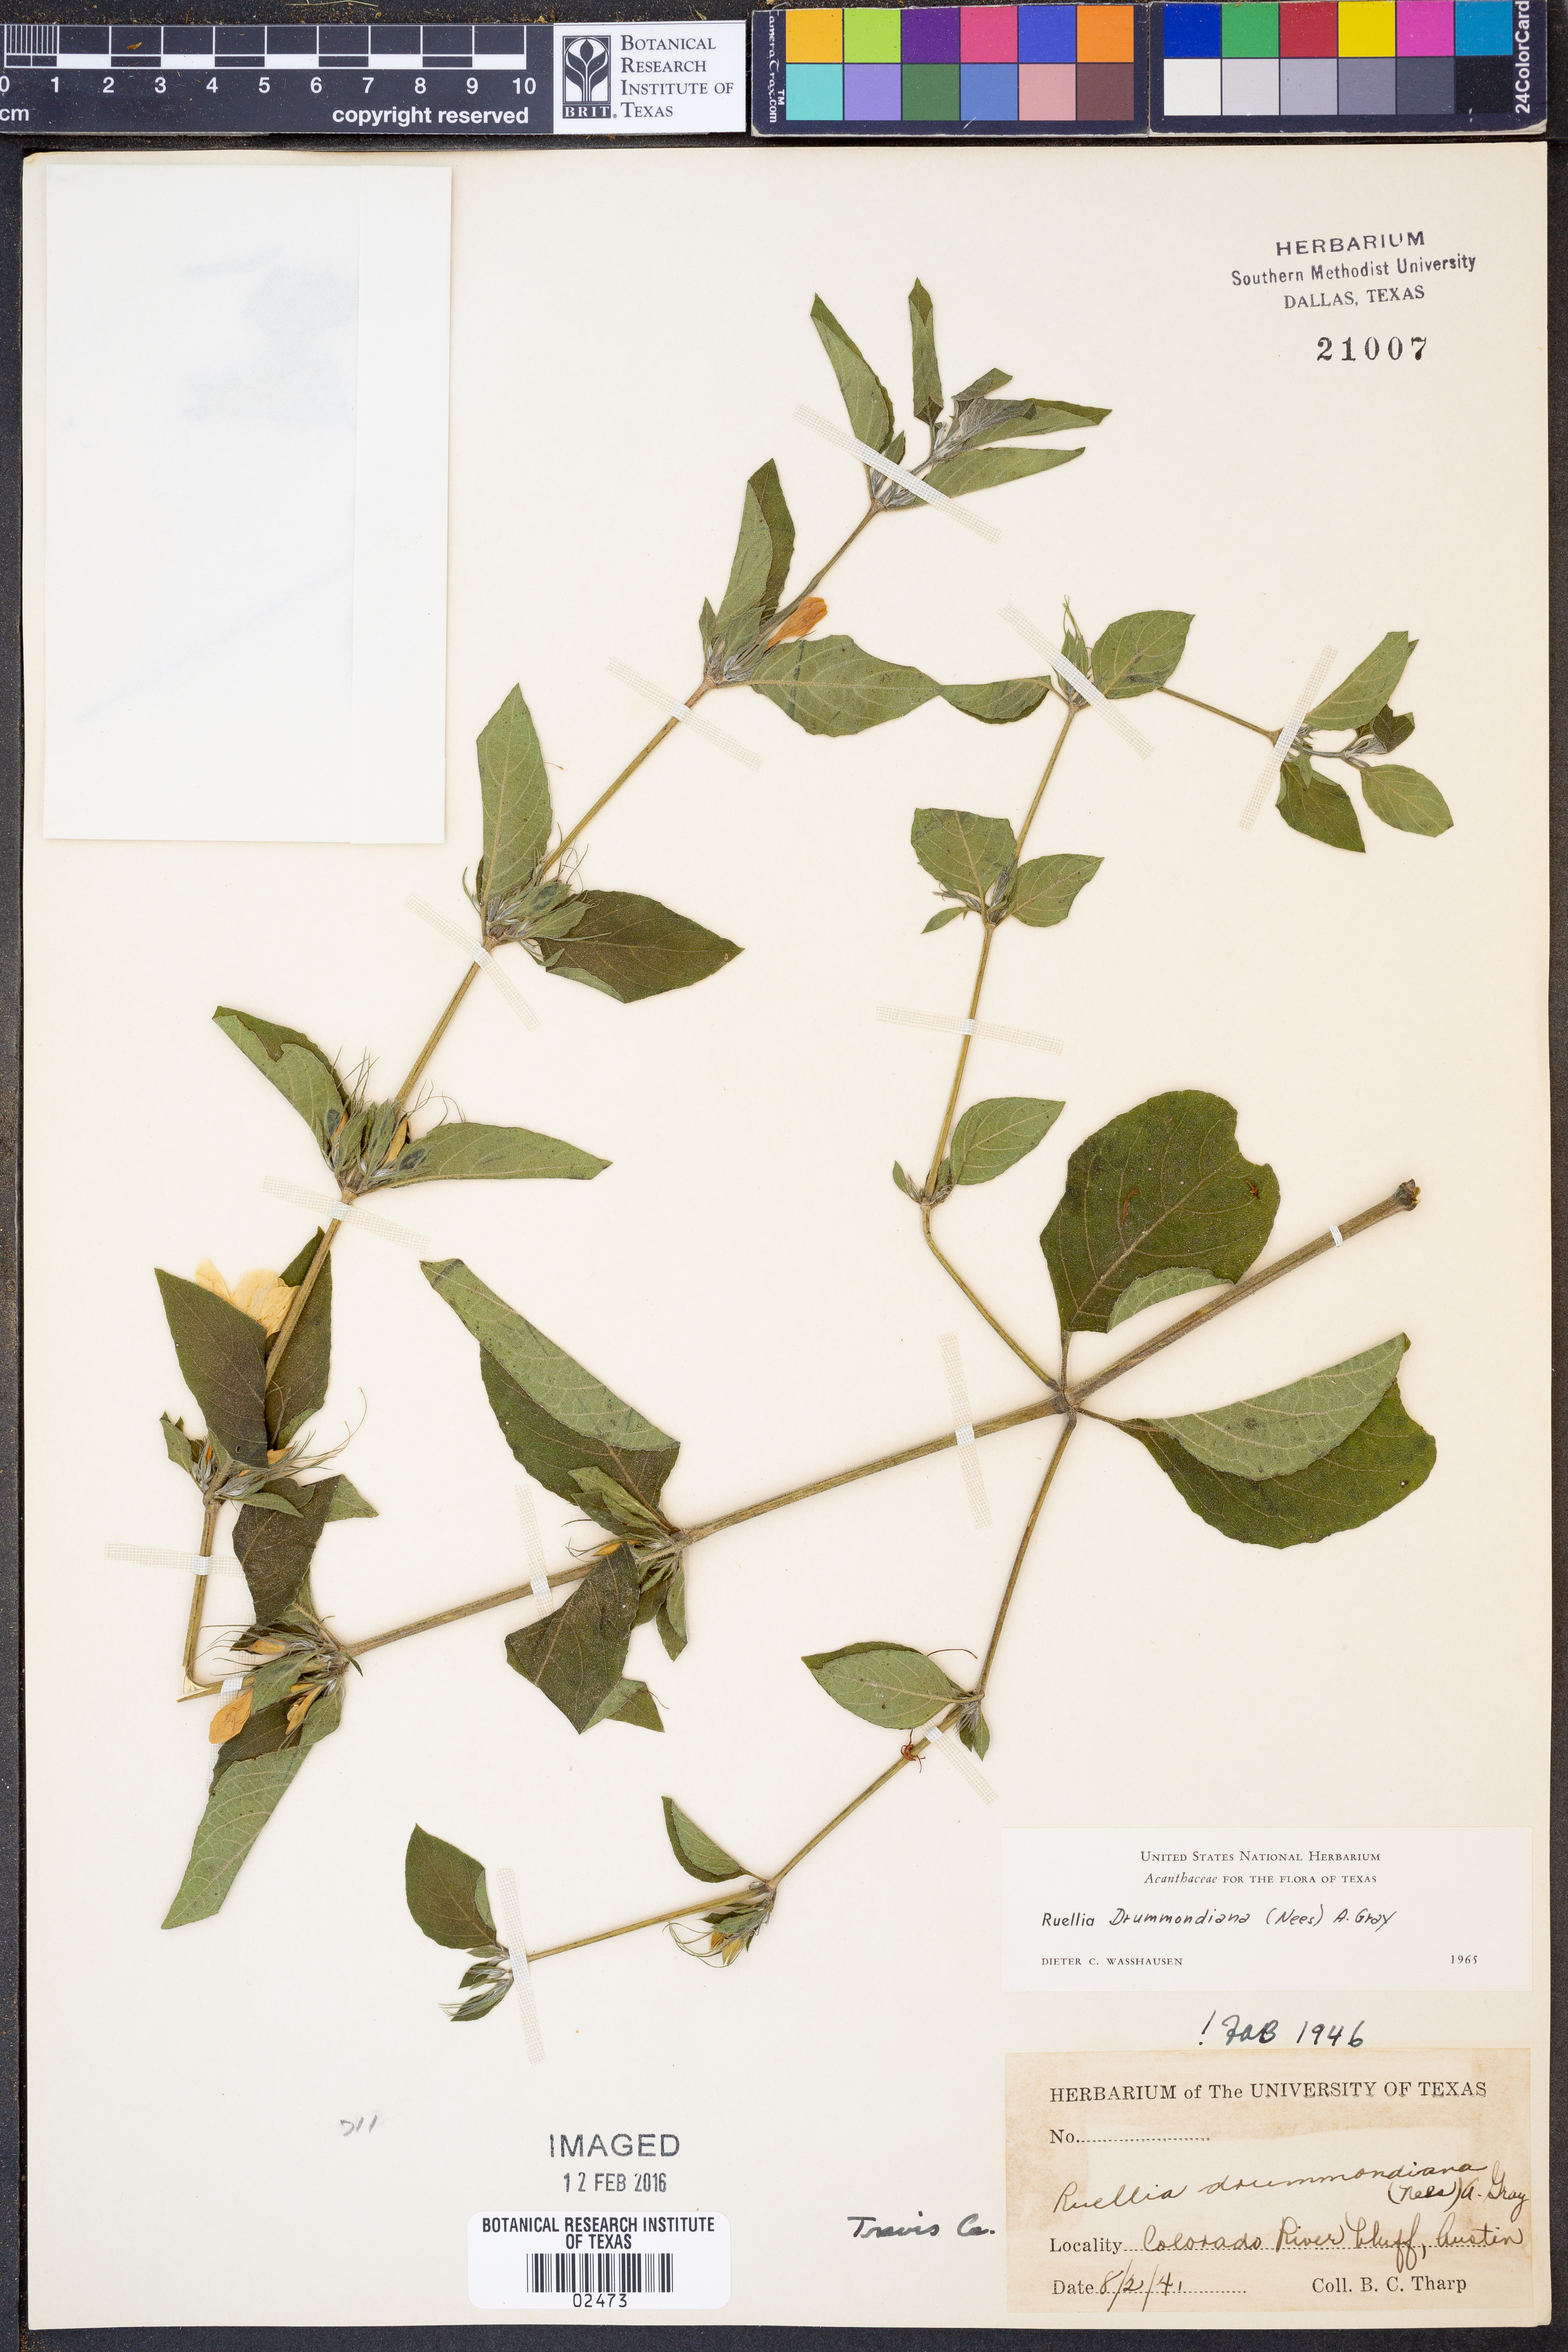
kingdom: Plantae
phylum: Tracheophyta
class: Magnoliopsida
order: Lamiales
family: Acanthaceae
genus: Ruellia
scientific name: Ruellia drummondiana
